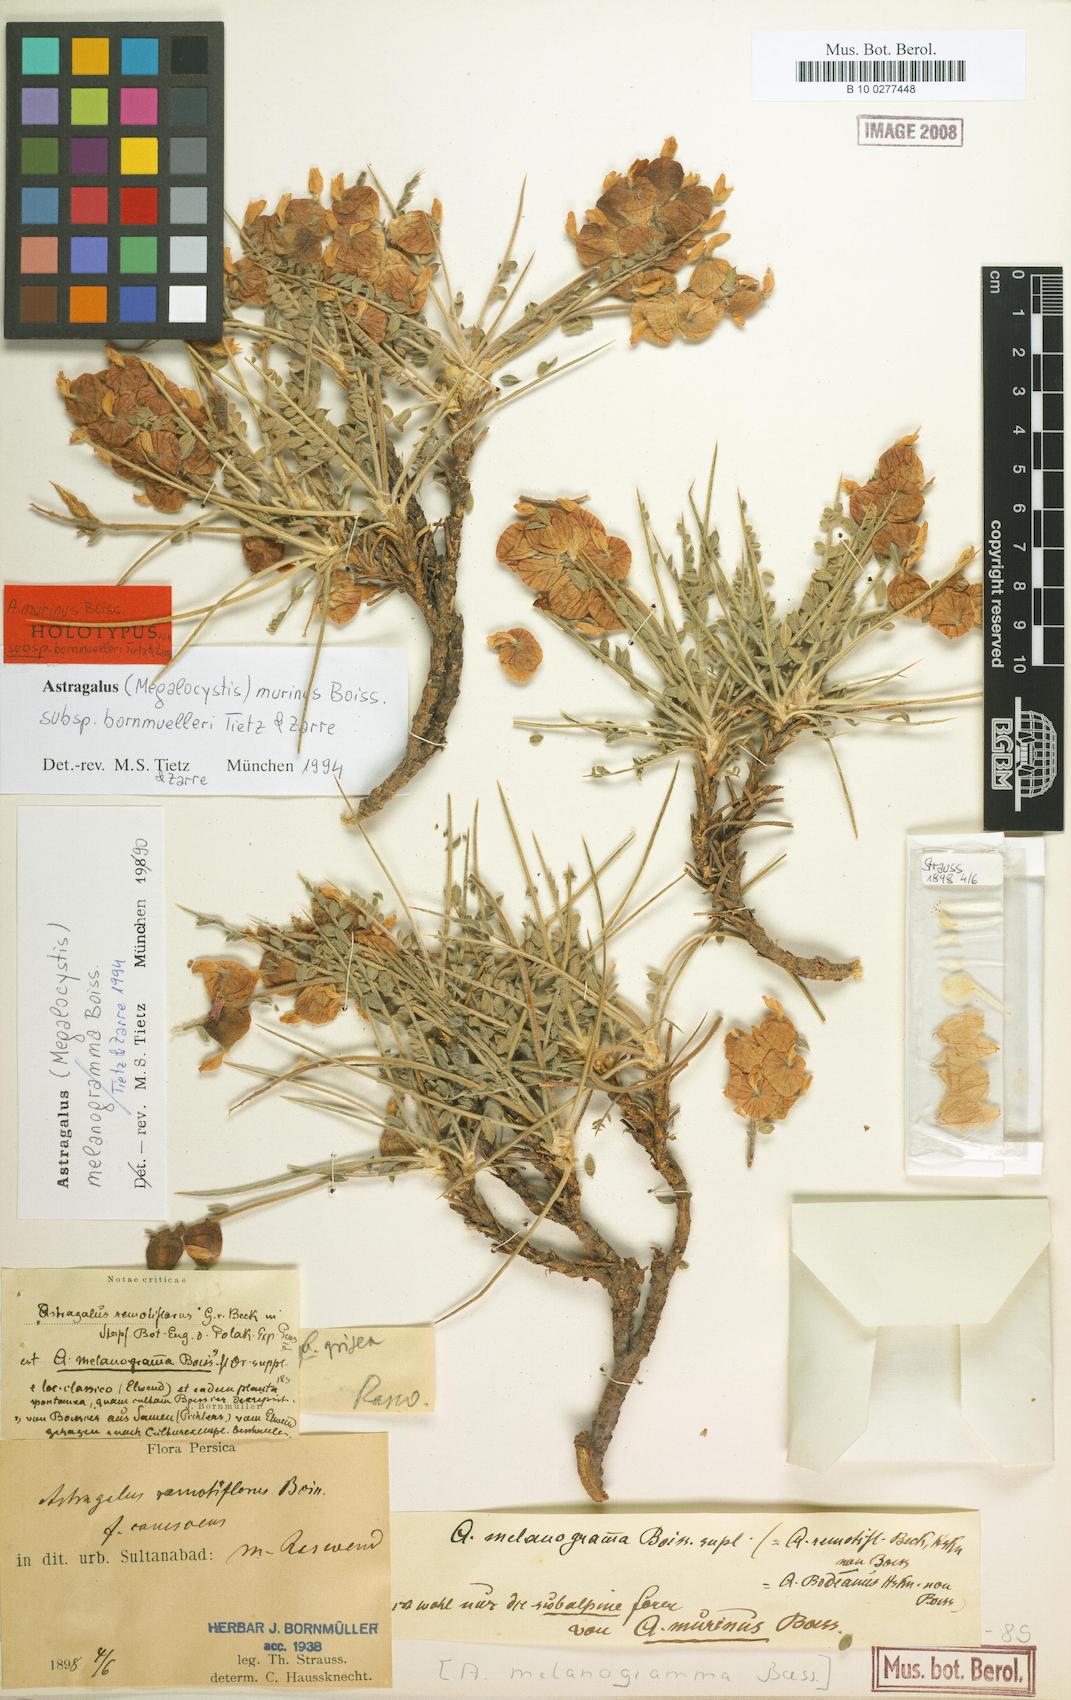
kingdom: Plantae
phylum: Tracheophyta
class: Magnoliopsida
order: Fabales
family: Fabaceae
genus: Astragalus
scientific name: Astragalus pseudomurinus
